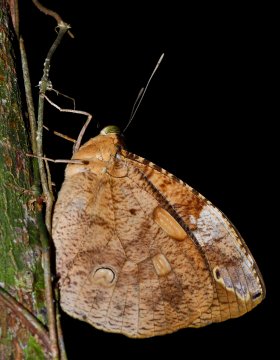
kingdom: Animalia
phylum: Arthropoda
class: Insecta
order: Lepidoptera
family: Nymphalidae
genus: Dynastor
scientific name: Dynastor darius
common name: Daring Owl-Butterfly
